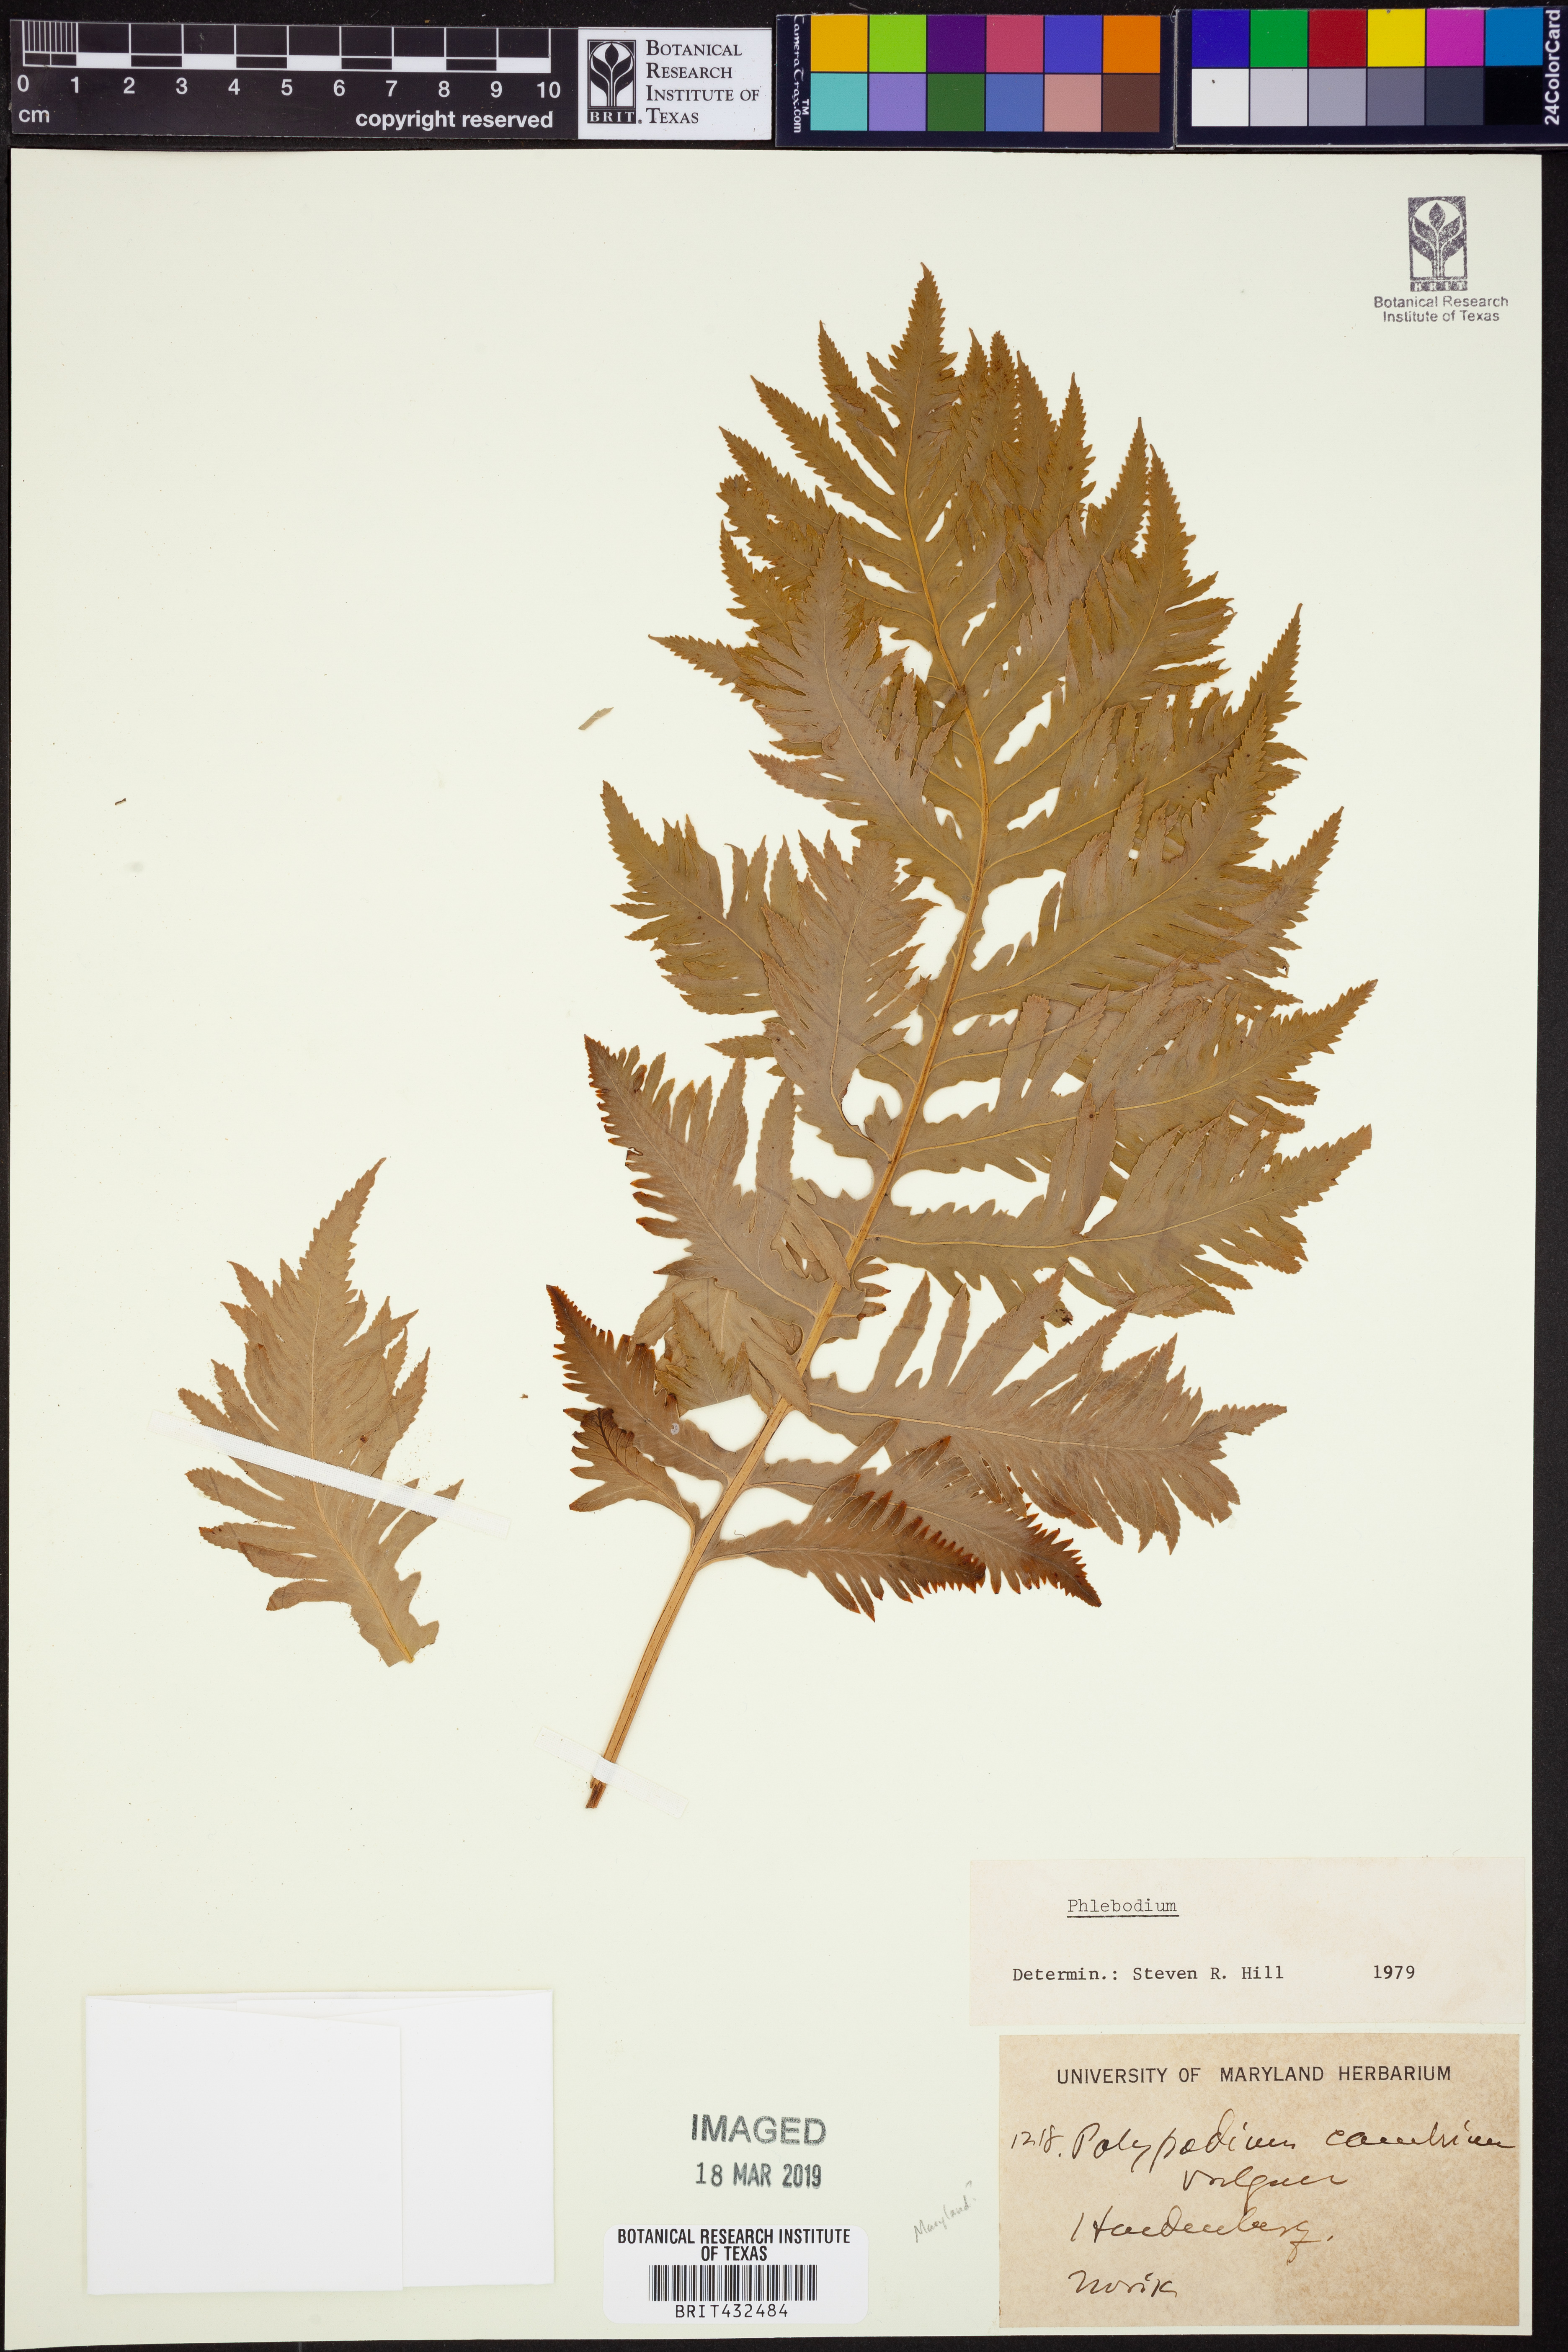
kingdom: Plantae
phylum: Tracheophyta
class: Polypodiopsida
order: Polypodiales
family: Polypodiaceae
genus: Phlebodium
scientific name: Phlebodium
